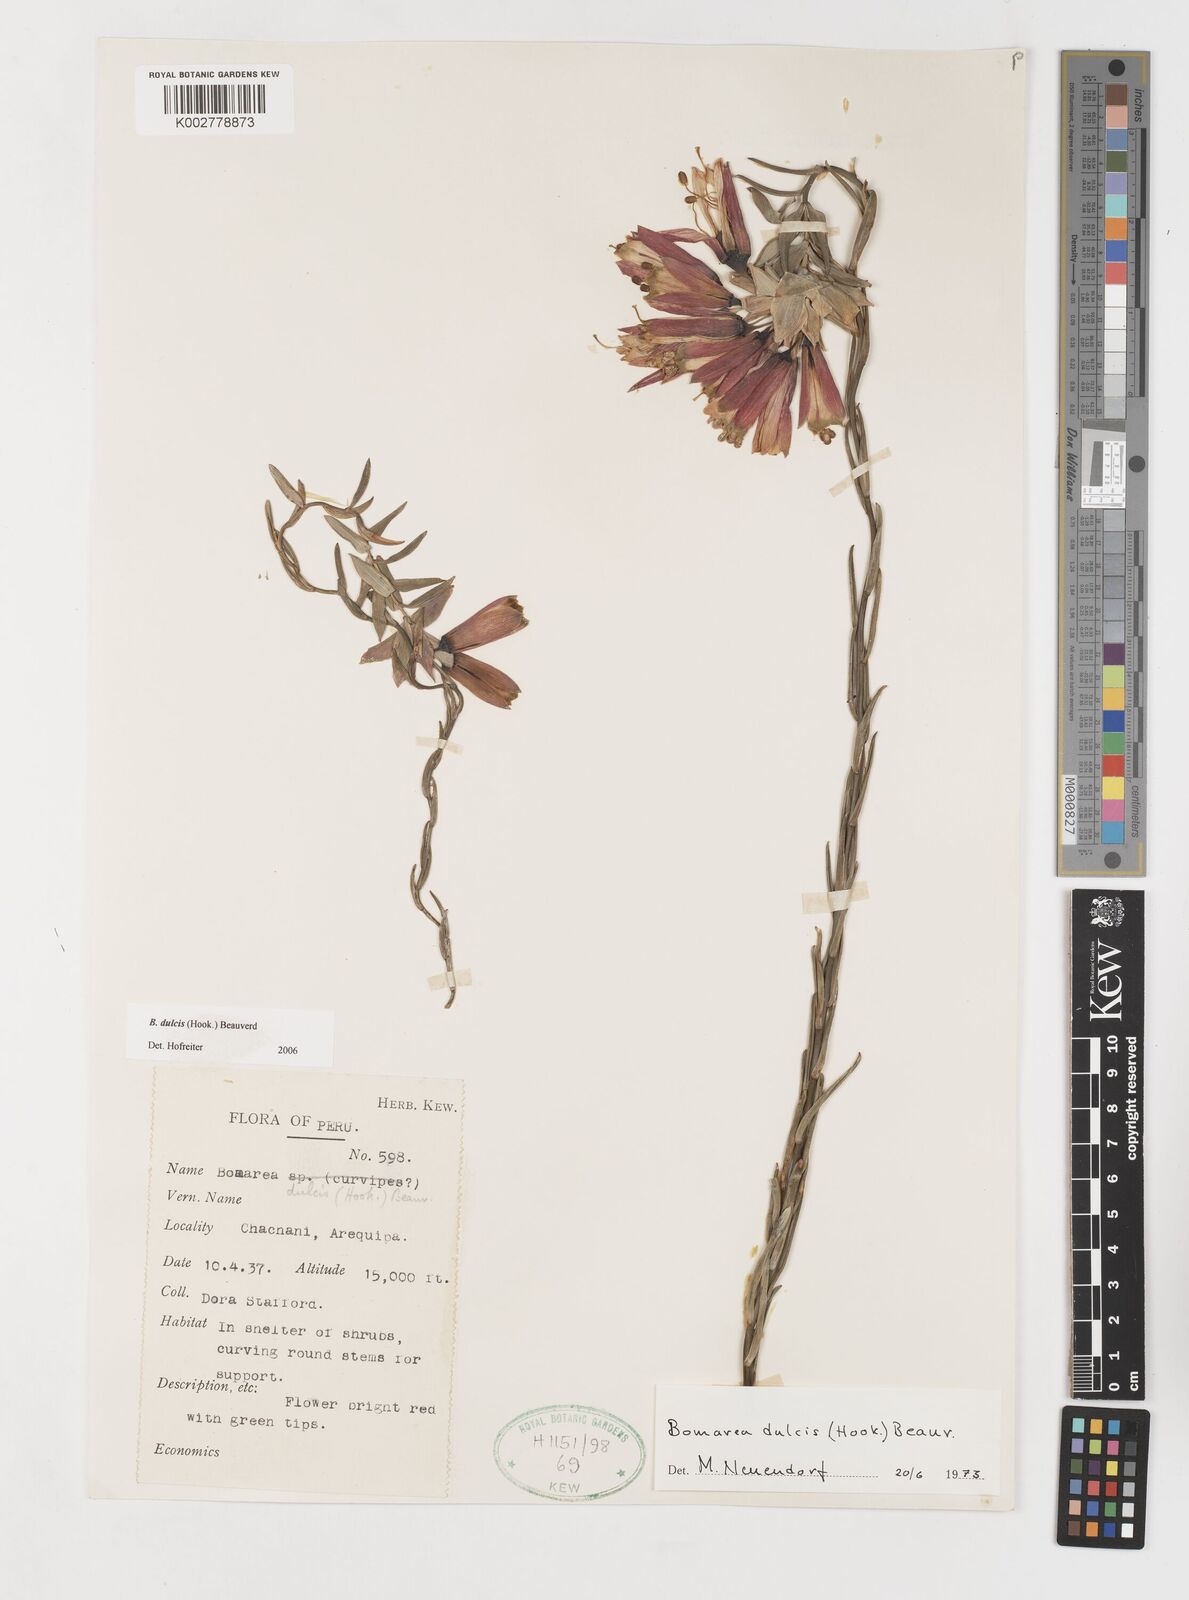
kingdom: Plantae
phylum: Tracheophyta
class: Liliopsida
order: Liliales
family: Alstroemeriaceae
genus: Bomarea
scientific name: Bomarea dulcis
